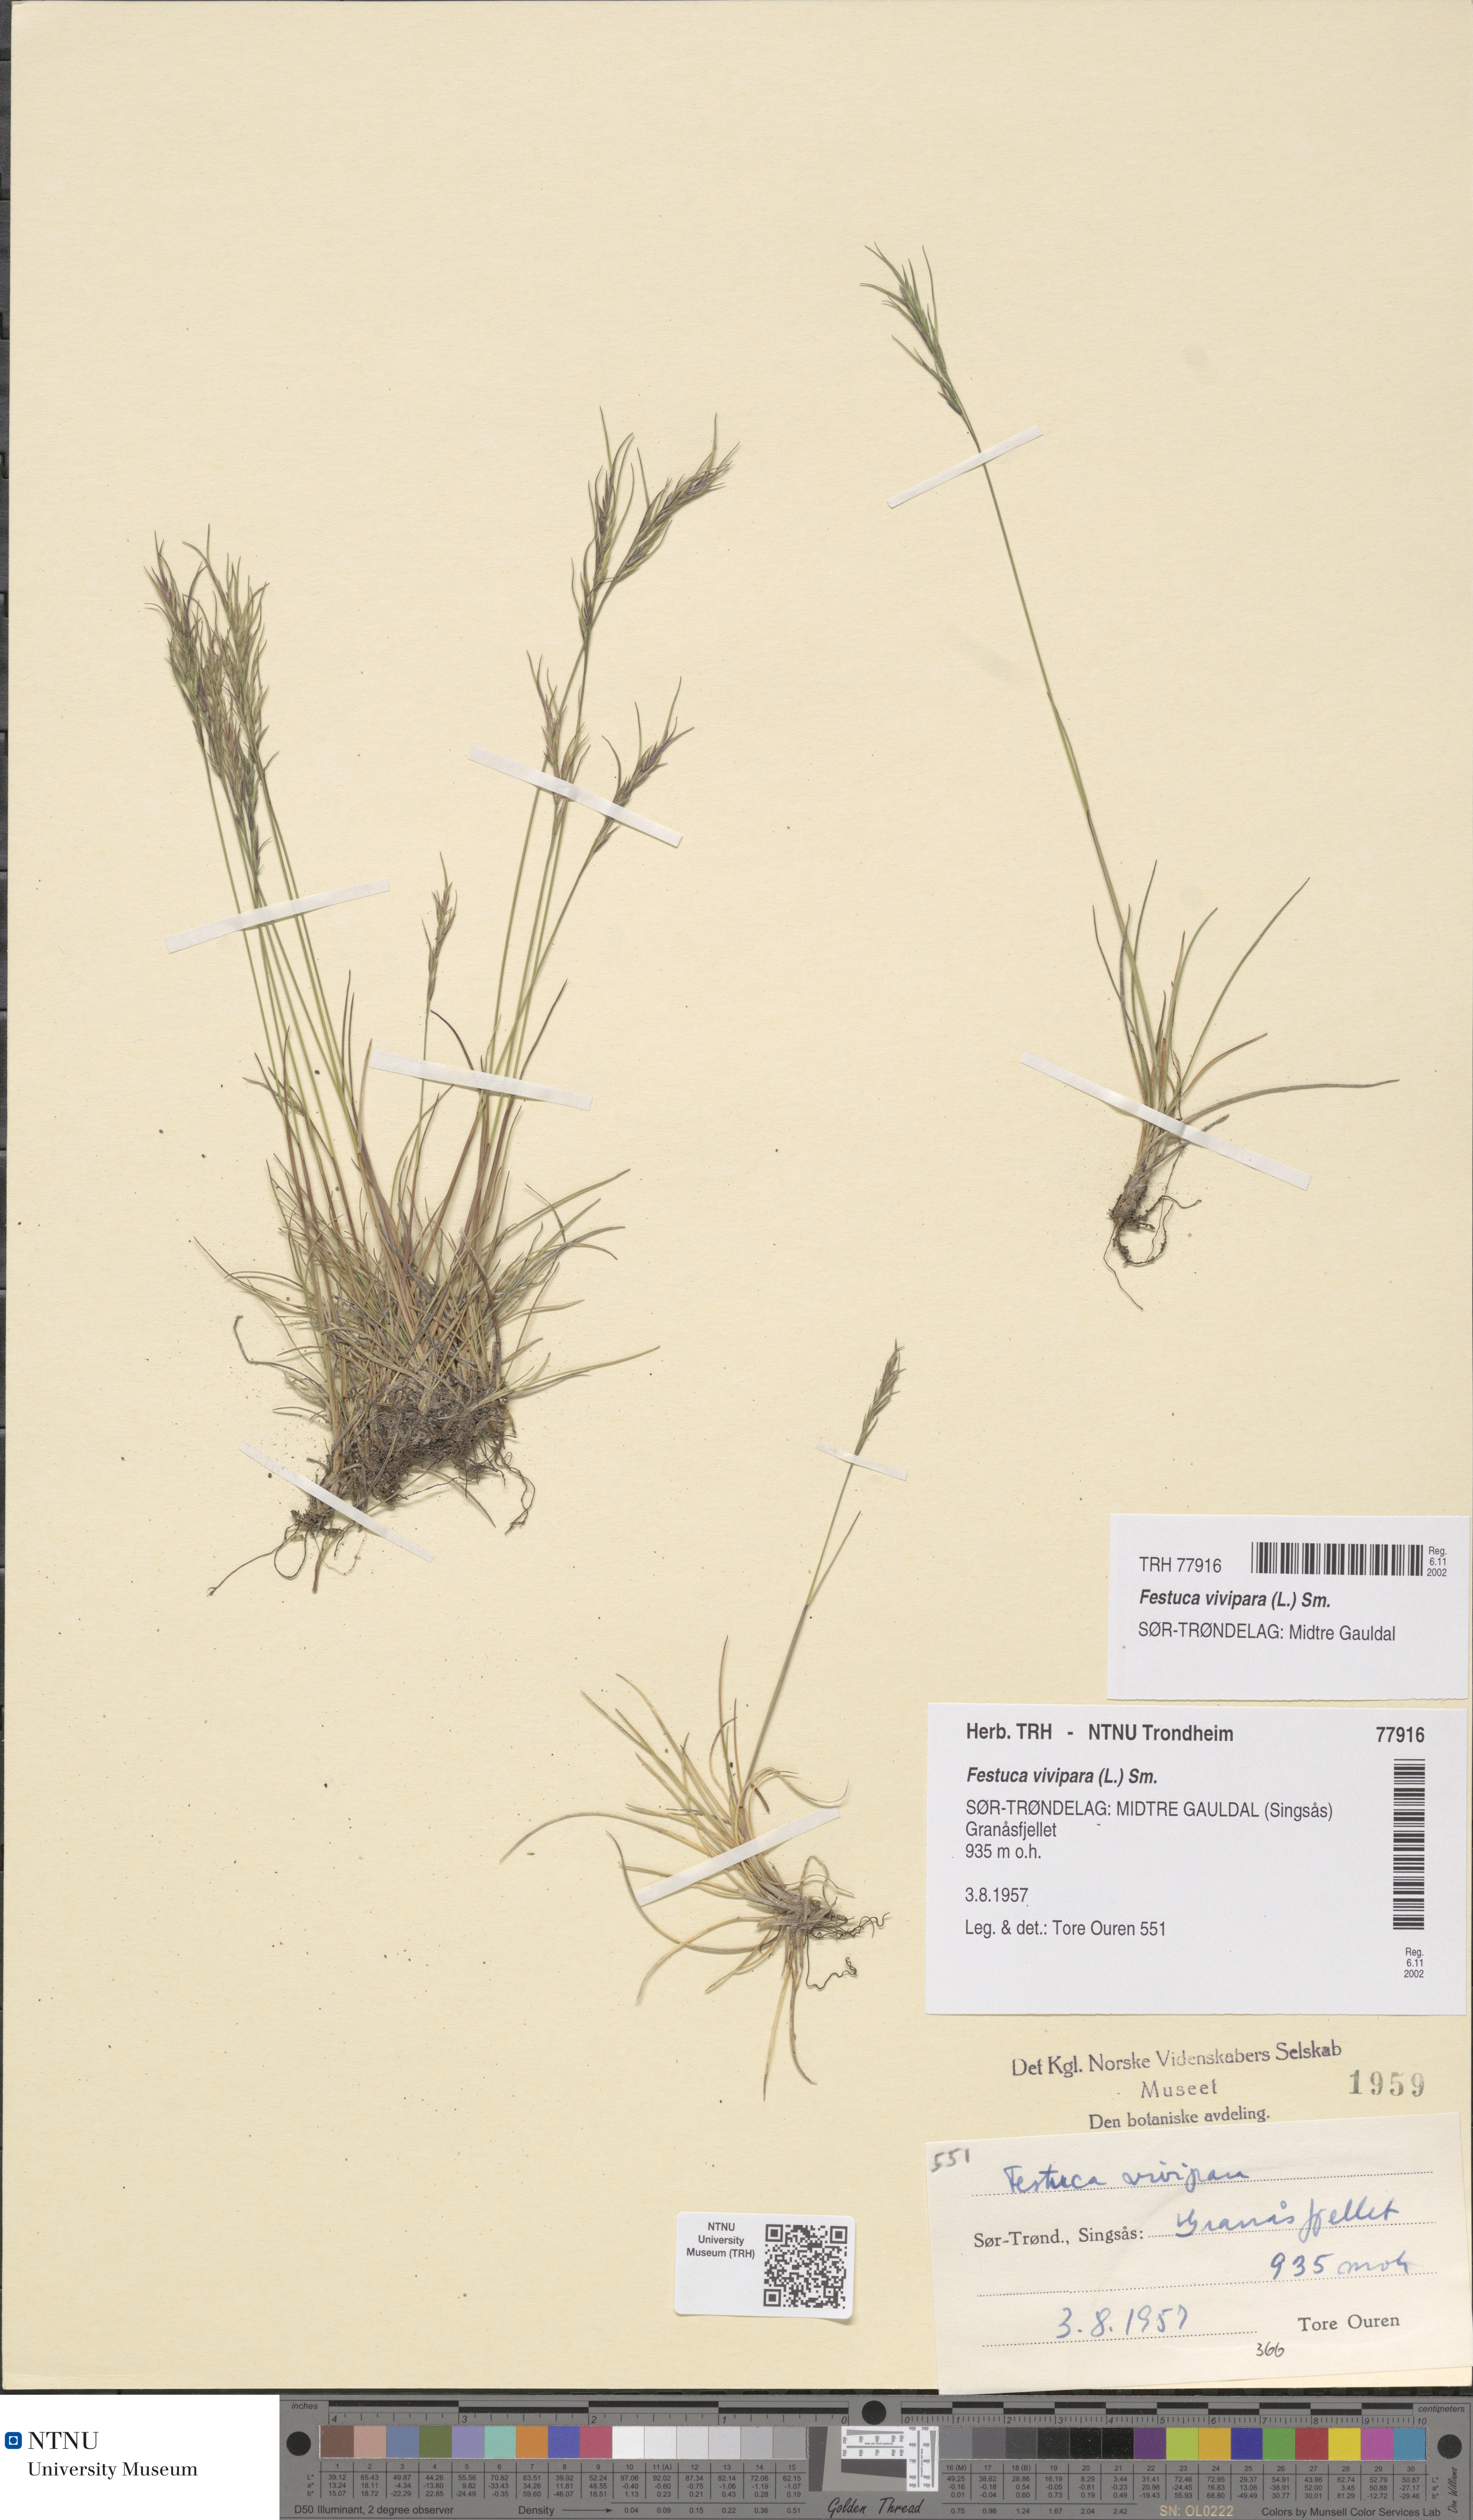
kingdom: Plantae
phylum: Tracheophyta
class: Liliopsida
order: Poales
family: Poaceae
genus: Festuca
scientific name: Festuca vivipara
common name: Viviparous sheep's-fescue
